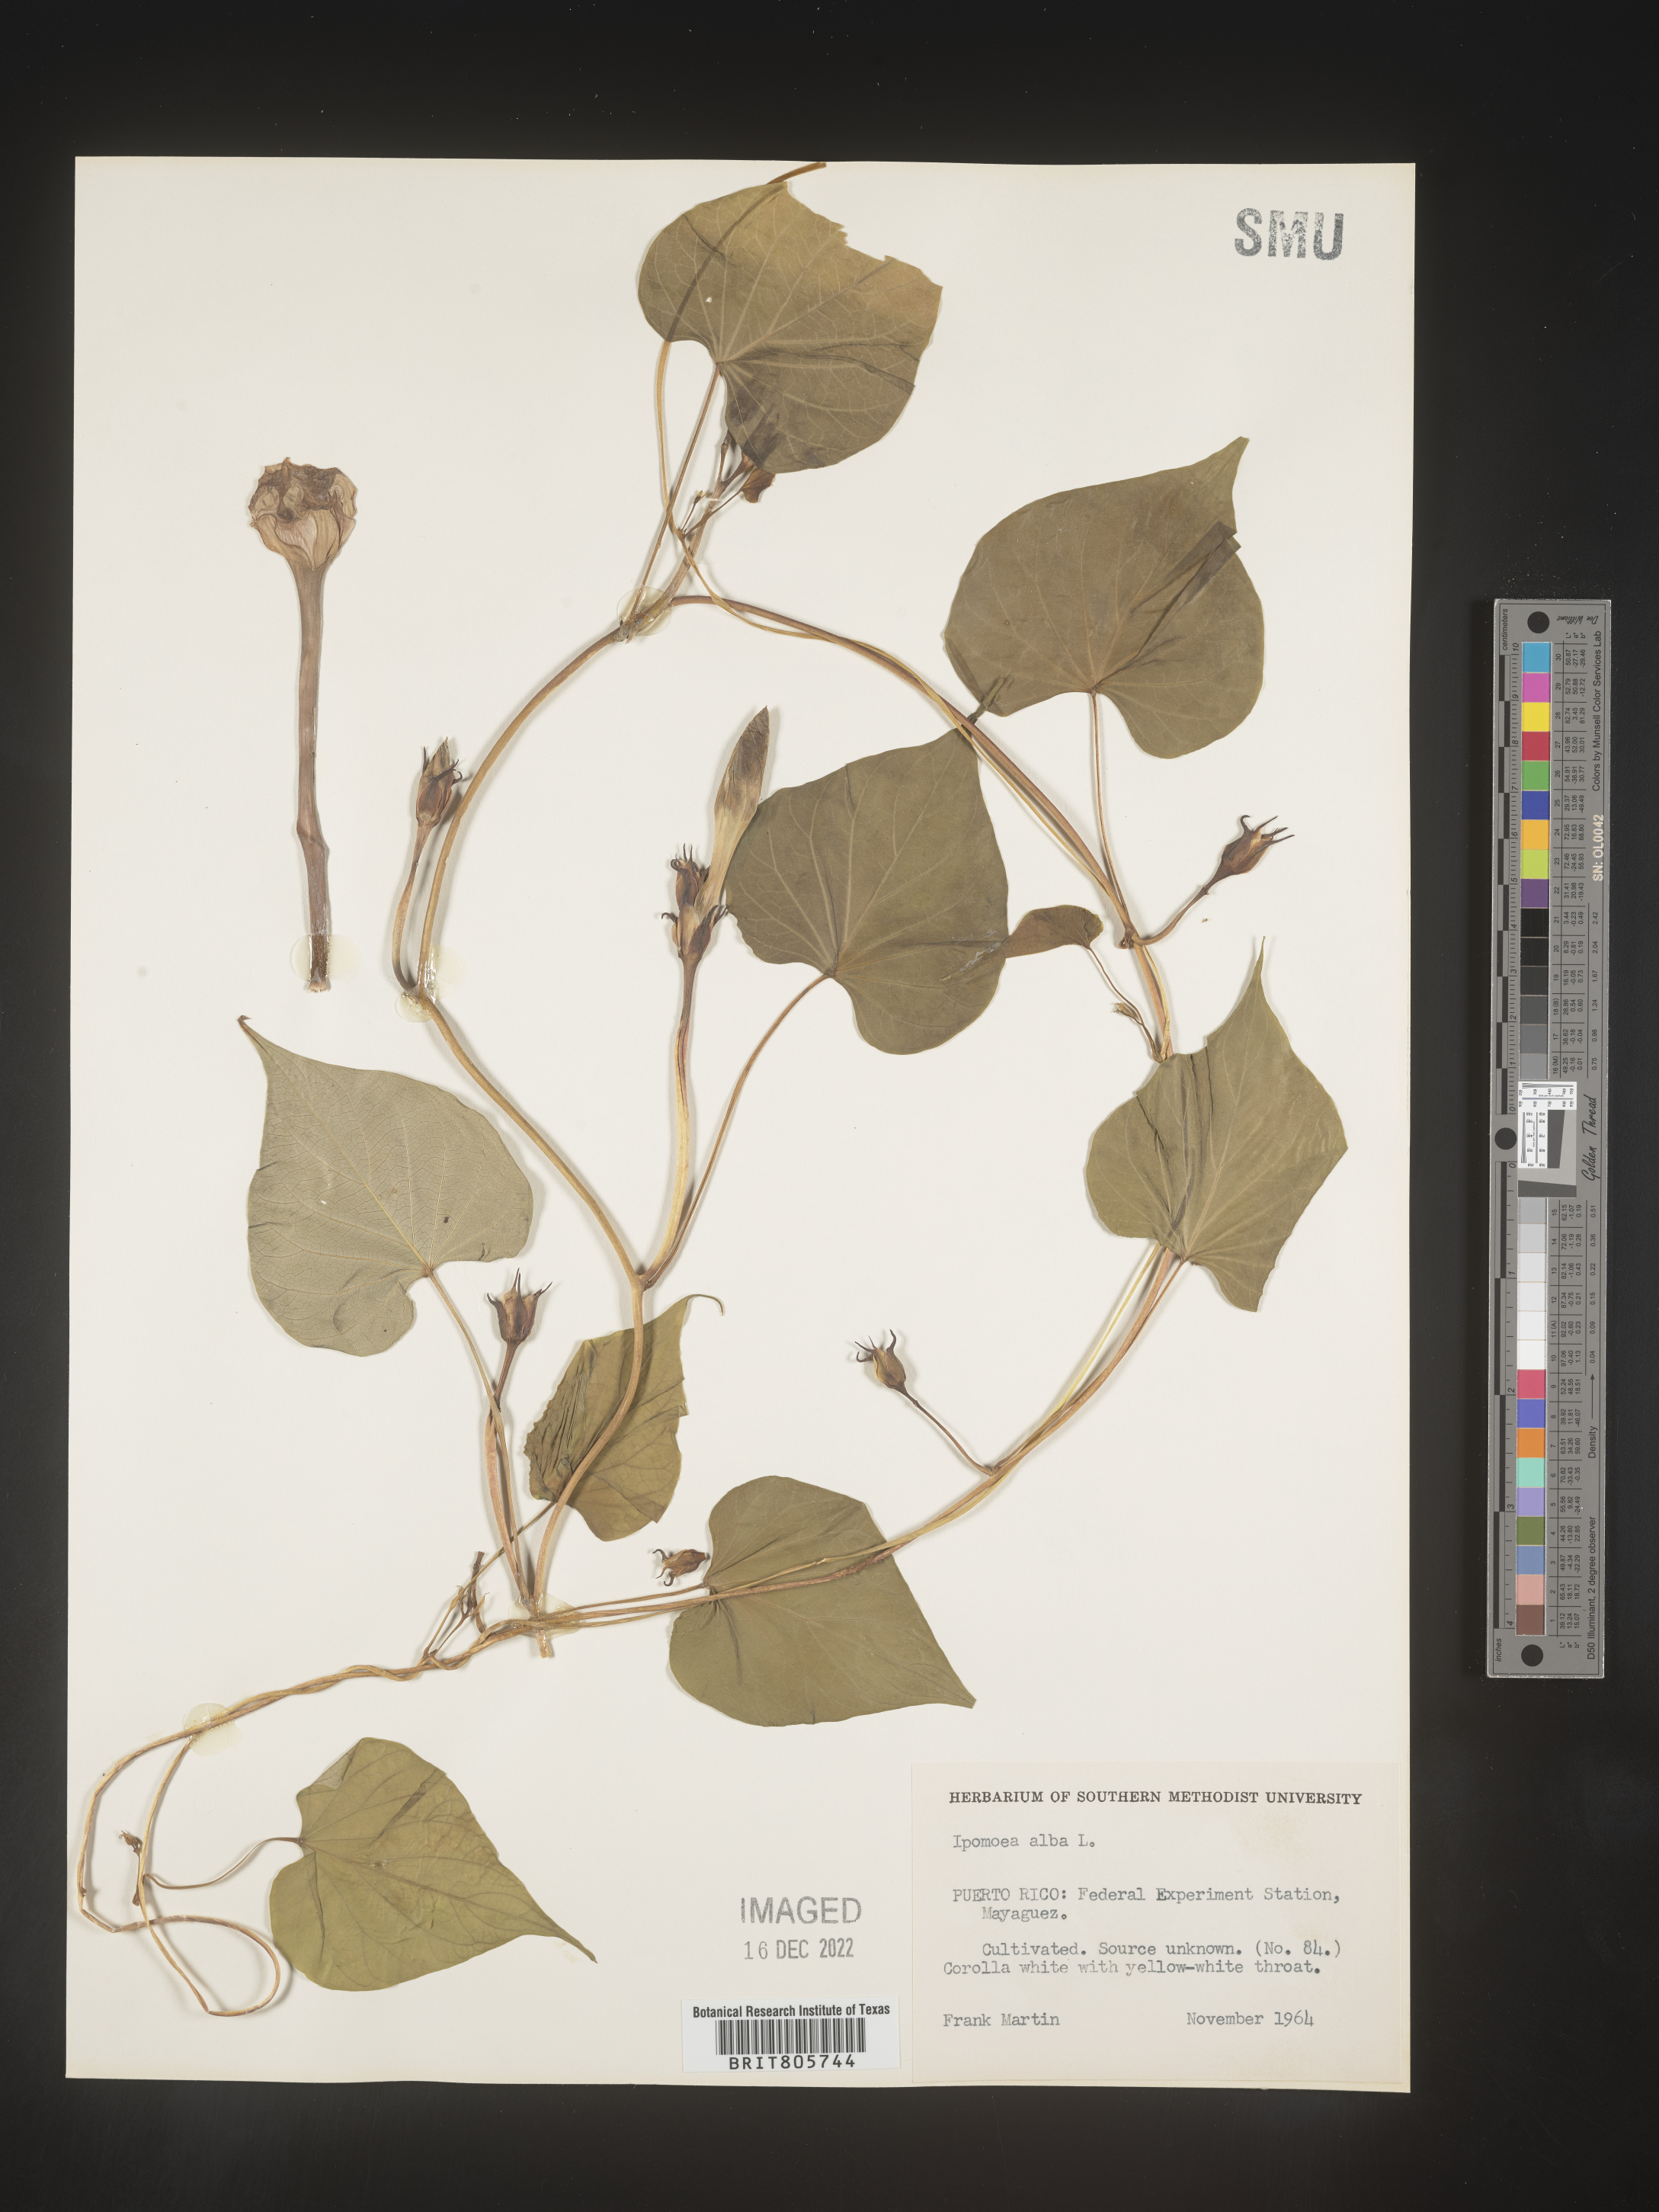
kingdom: Plantae
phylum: Tracheophyta
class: Magnoliopsida
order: Solanales
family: Convolvulaceae
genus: Ipomoea
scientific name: Ipomoea alba
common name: Moonflower
